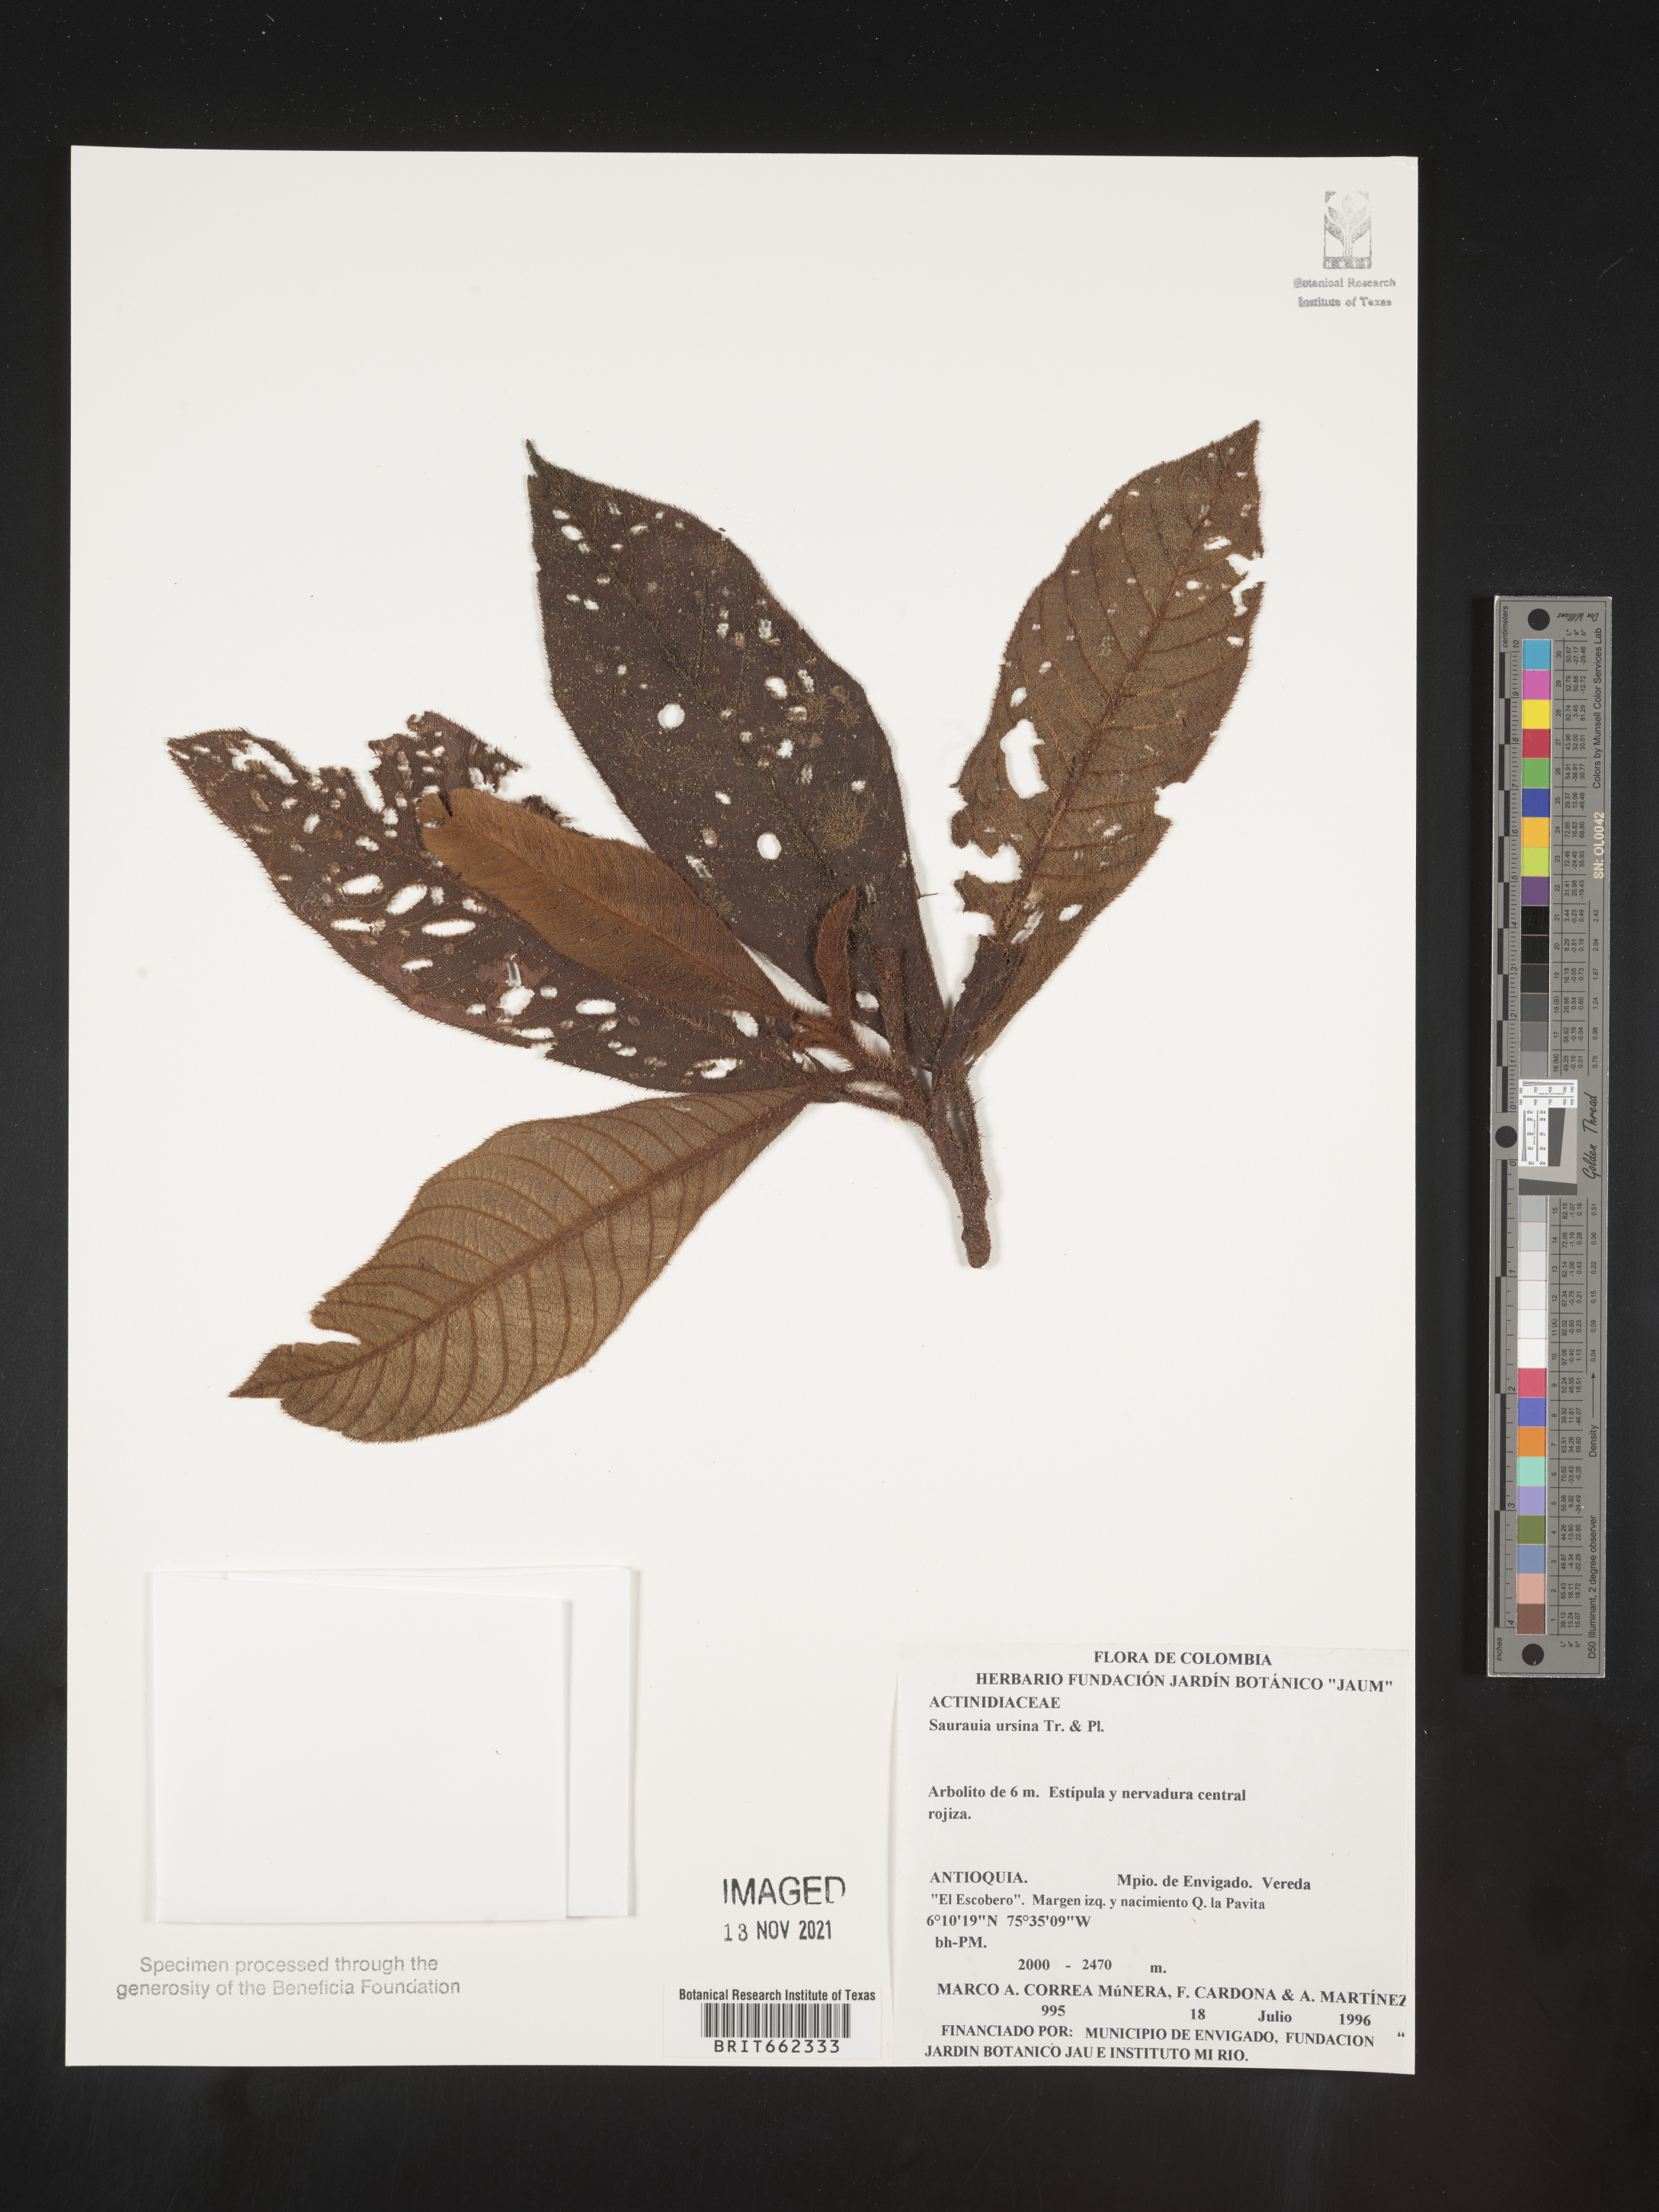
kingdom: Plantae
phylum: Tracheophyta
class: Magnoliopsida
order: Ericales
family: Actinidiaceae
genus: Saurauia
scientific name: Saurauia
